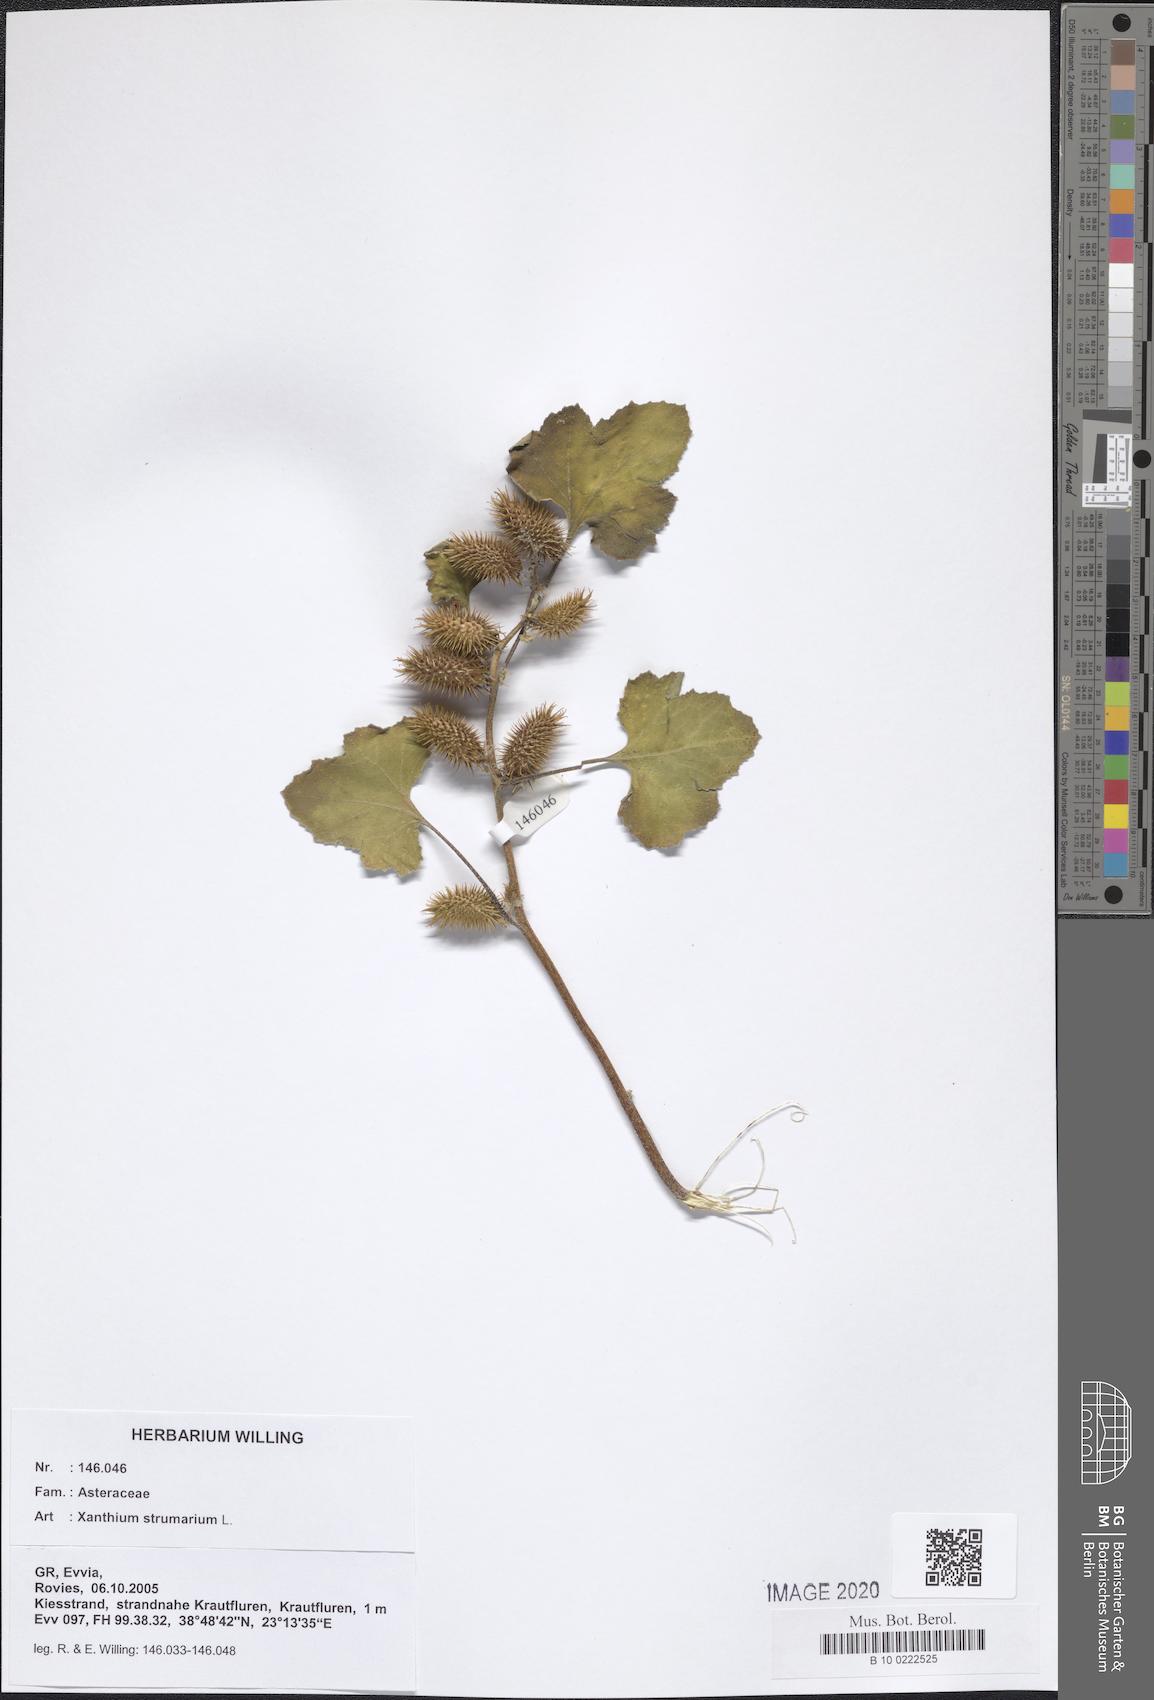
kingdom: Plantae
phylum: Tracheophyta
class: Magnoliopsida
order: Asterales
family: Asteraceae
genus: Xanthium
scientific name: Xanthium strumarium
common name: Rough cocklebur
